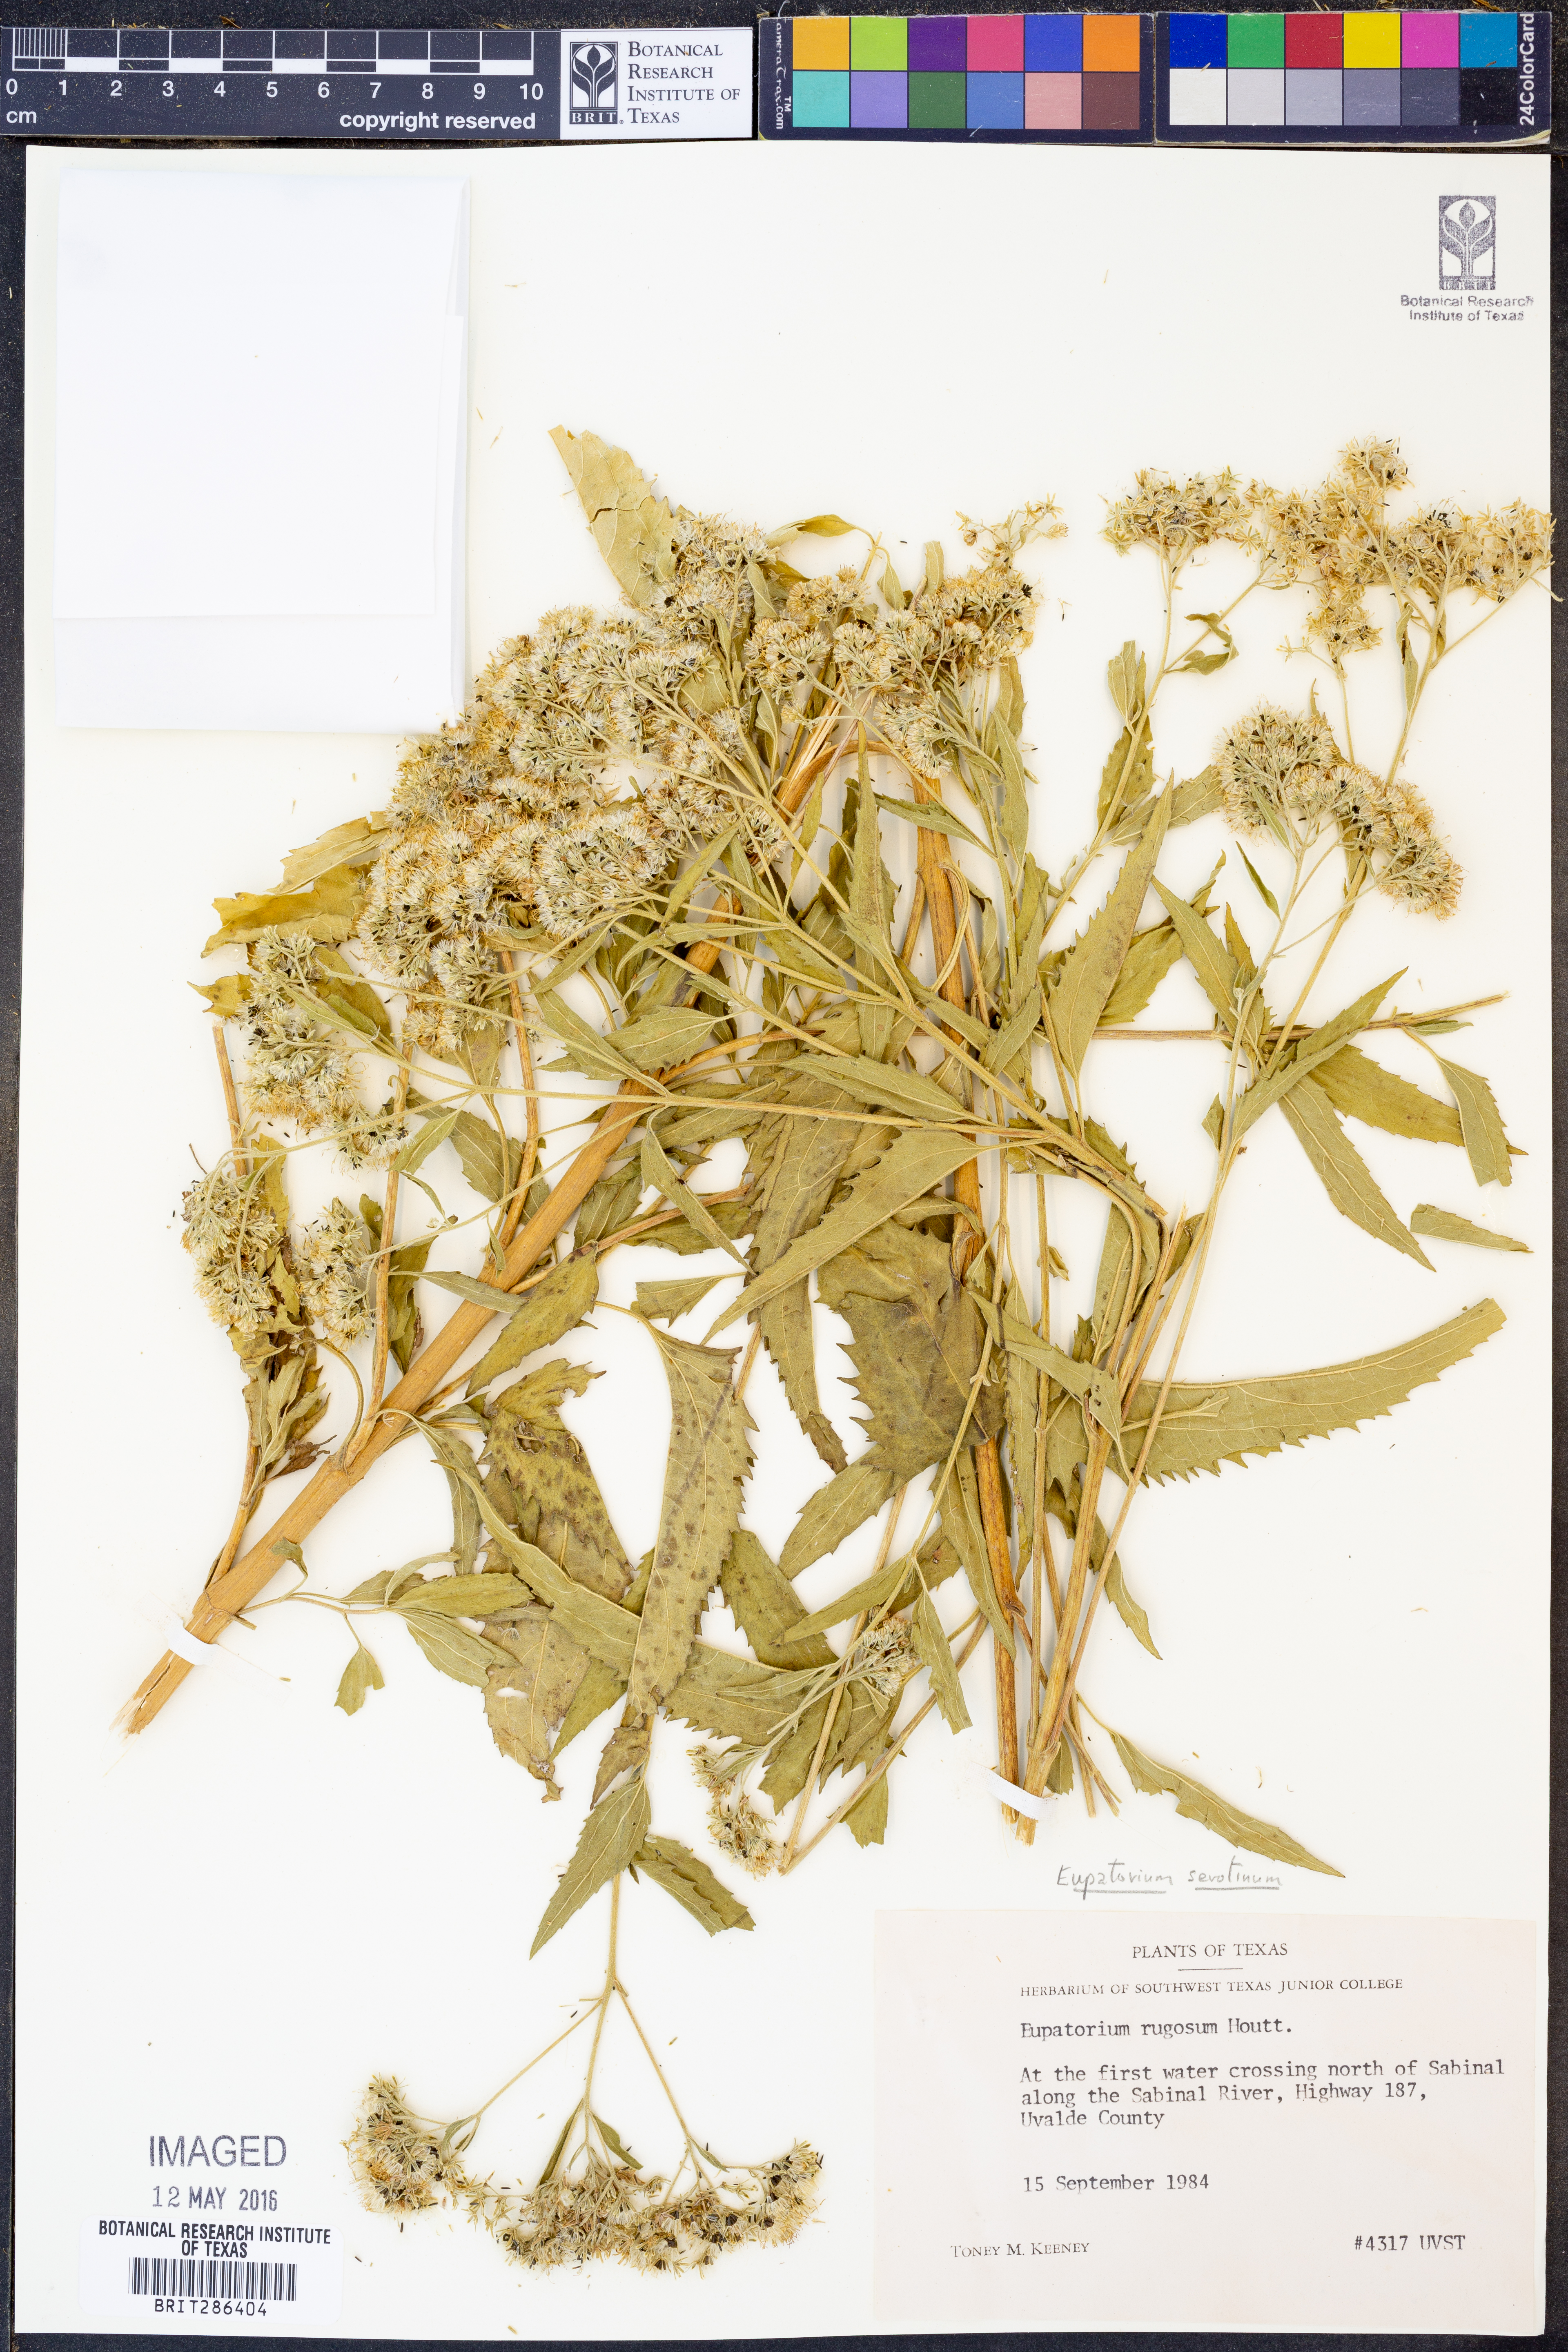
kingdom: Plantae
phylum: Tracheophyta
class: Magnoliopsida
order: Asterales
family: Asteraceae
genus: Eupatorium
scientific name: Eupatorium serotinum
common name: Late boneset
